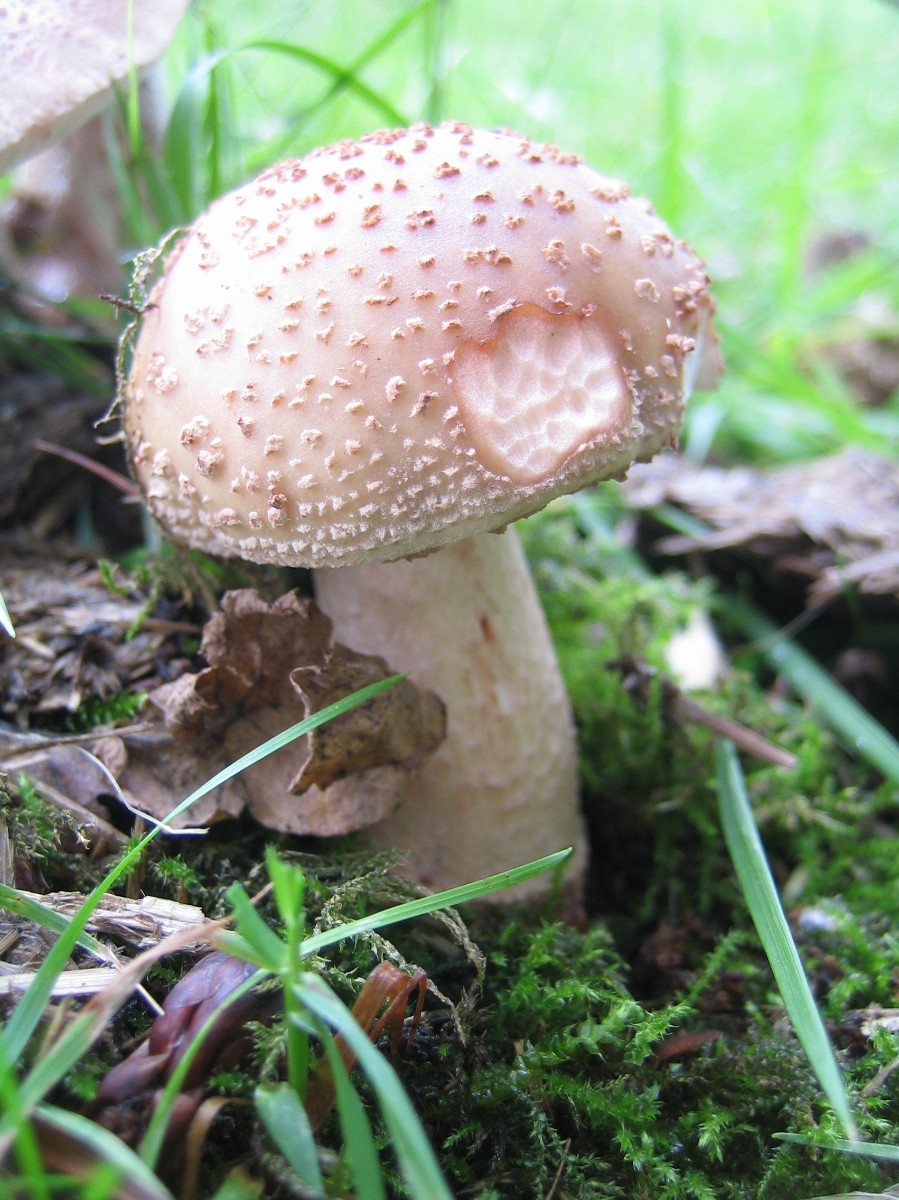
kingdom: Fungi
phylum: Basidiomycota
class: Agaricomycetes
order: Agaricales
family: Amanitaceae
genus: Amanita
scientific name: Amanita rubescens
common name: rødmende fluesvamp
